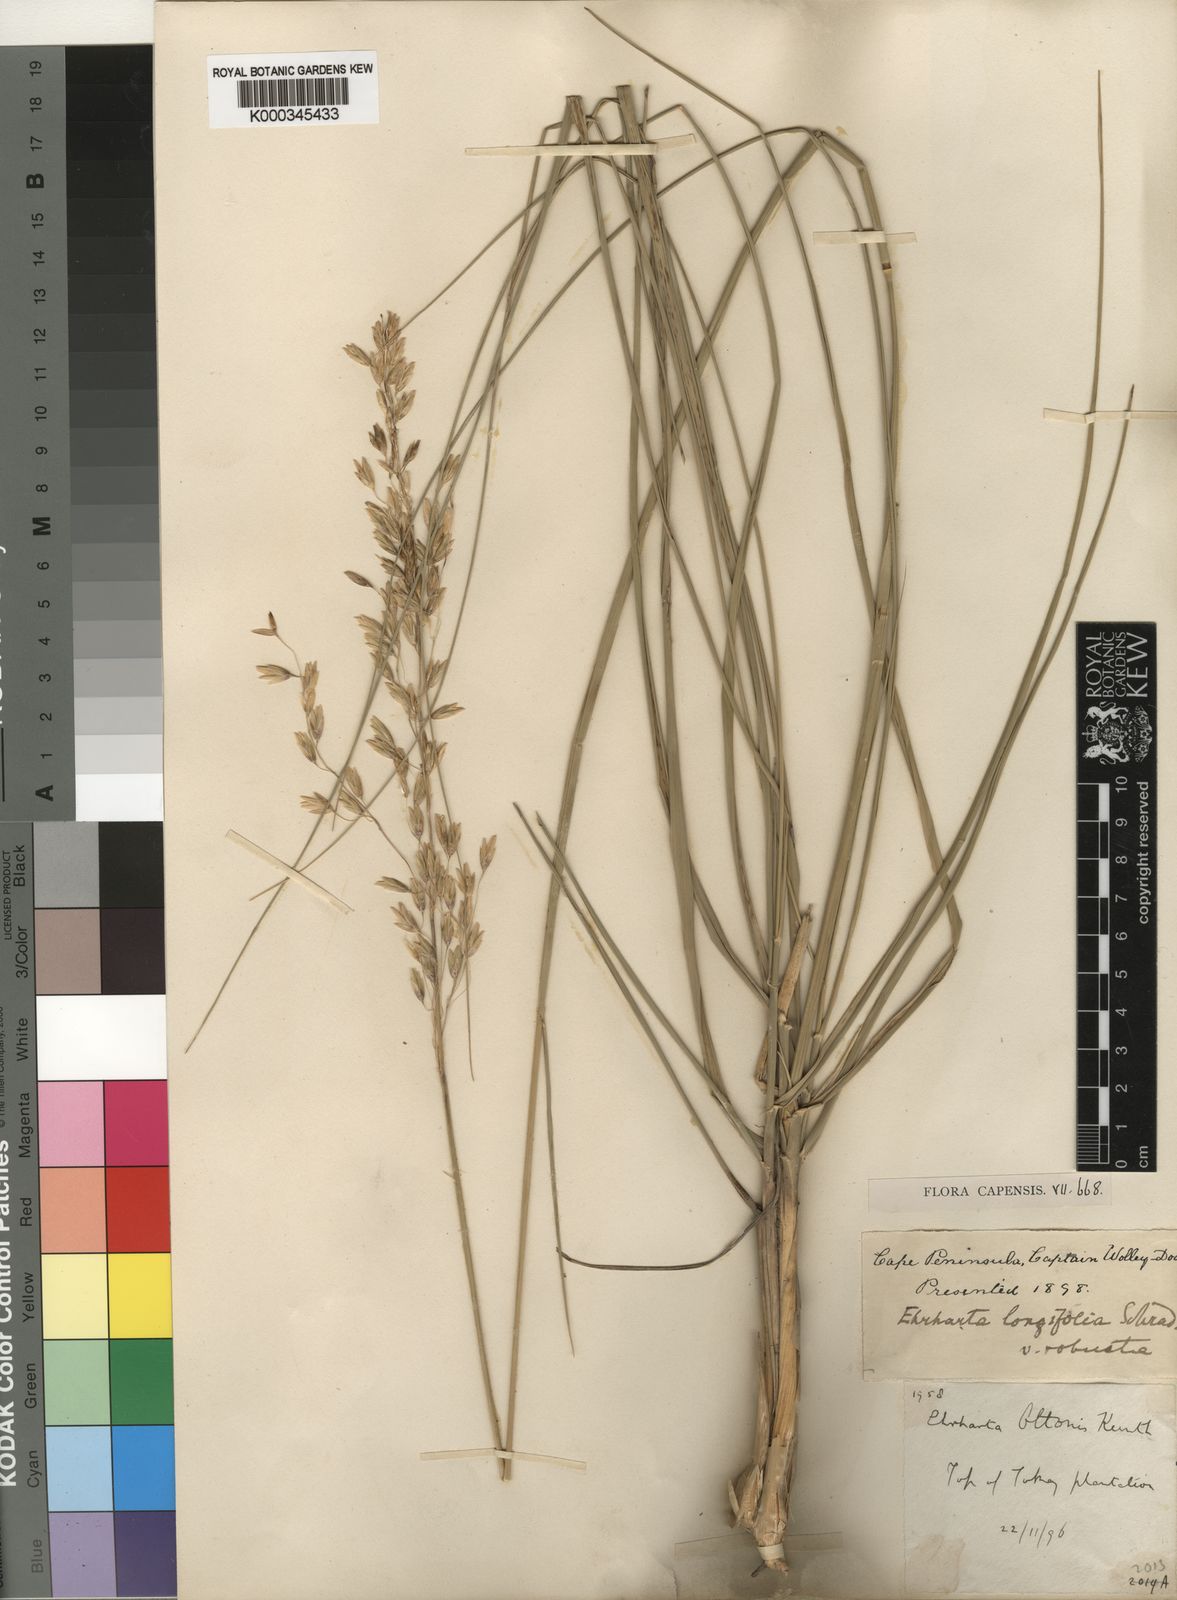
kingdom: Plantae
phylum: Tracheophyta
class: Liliopsida
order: Poales
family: Poaceae
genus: Ehrharta
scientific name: Ehrharta longifolia
